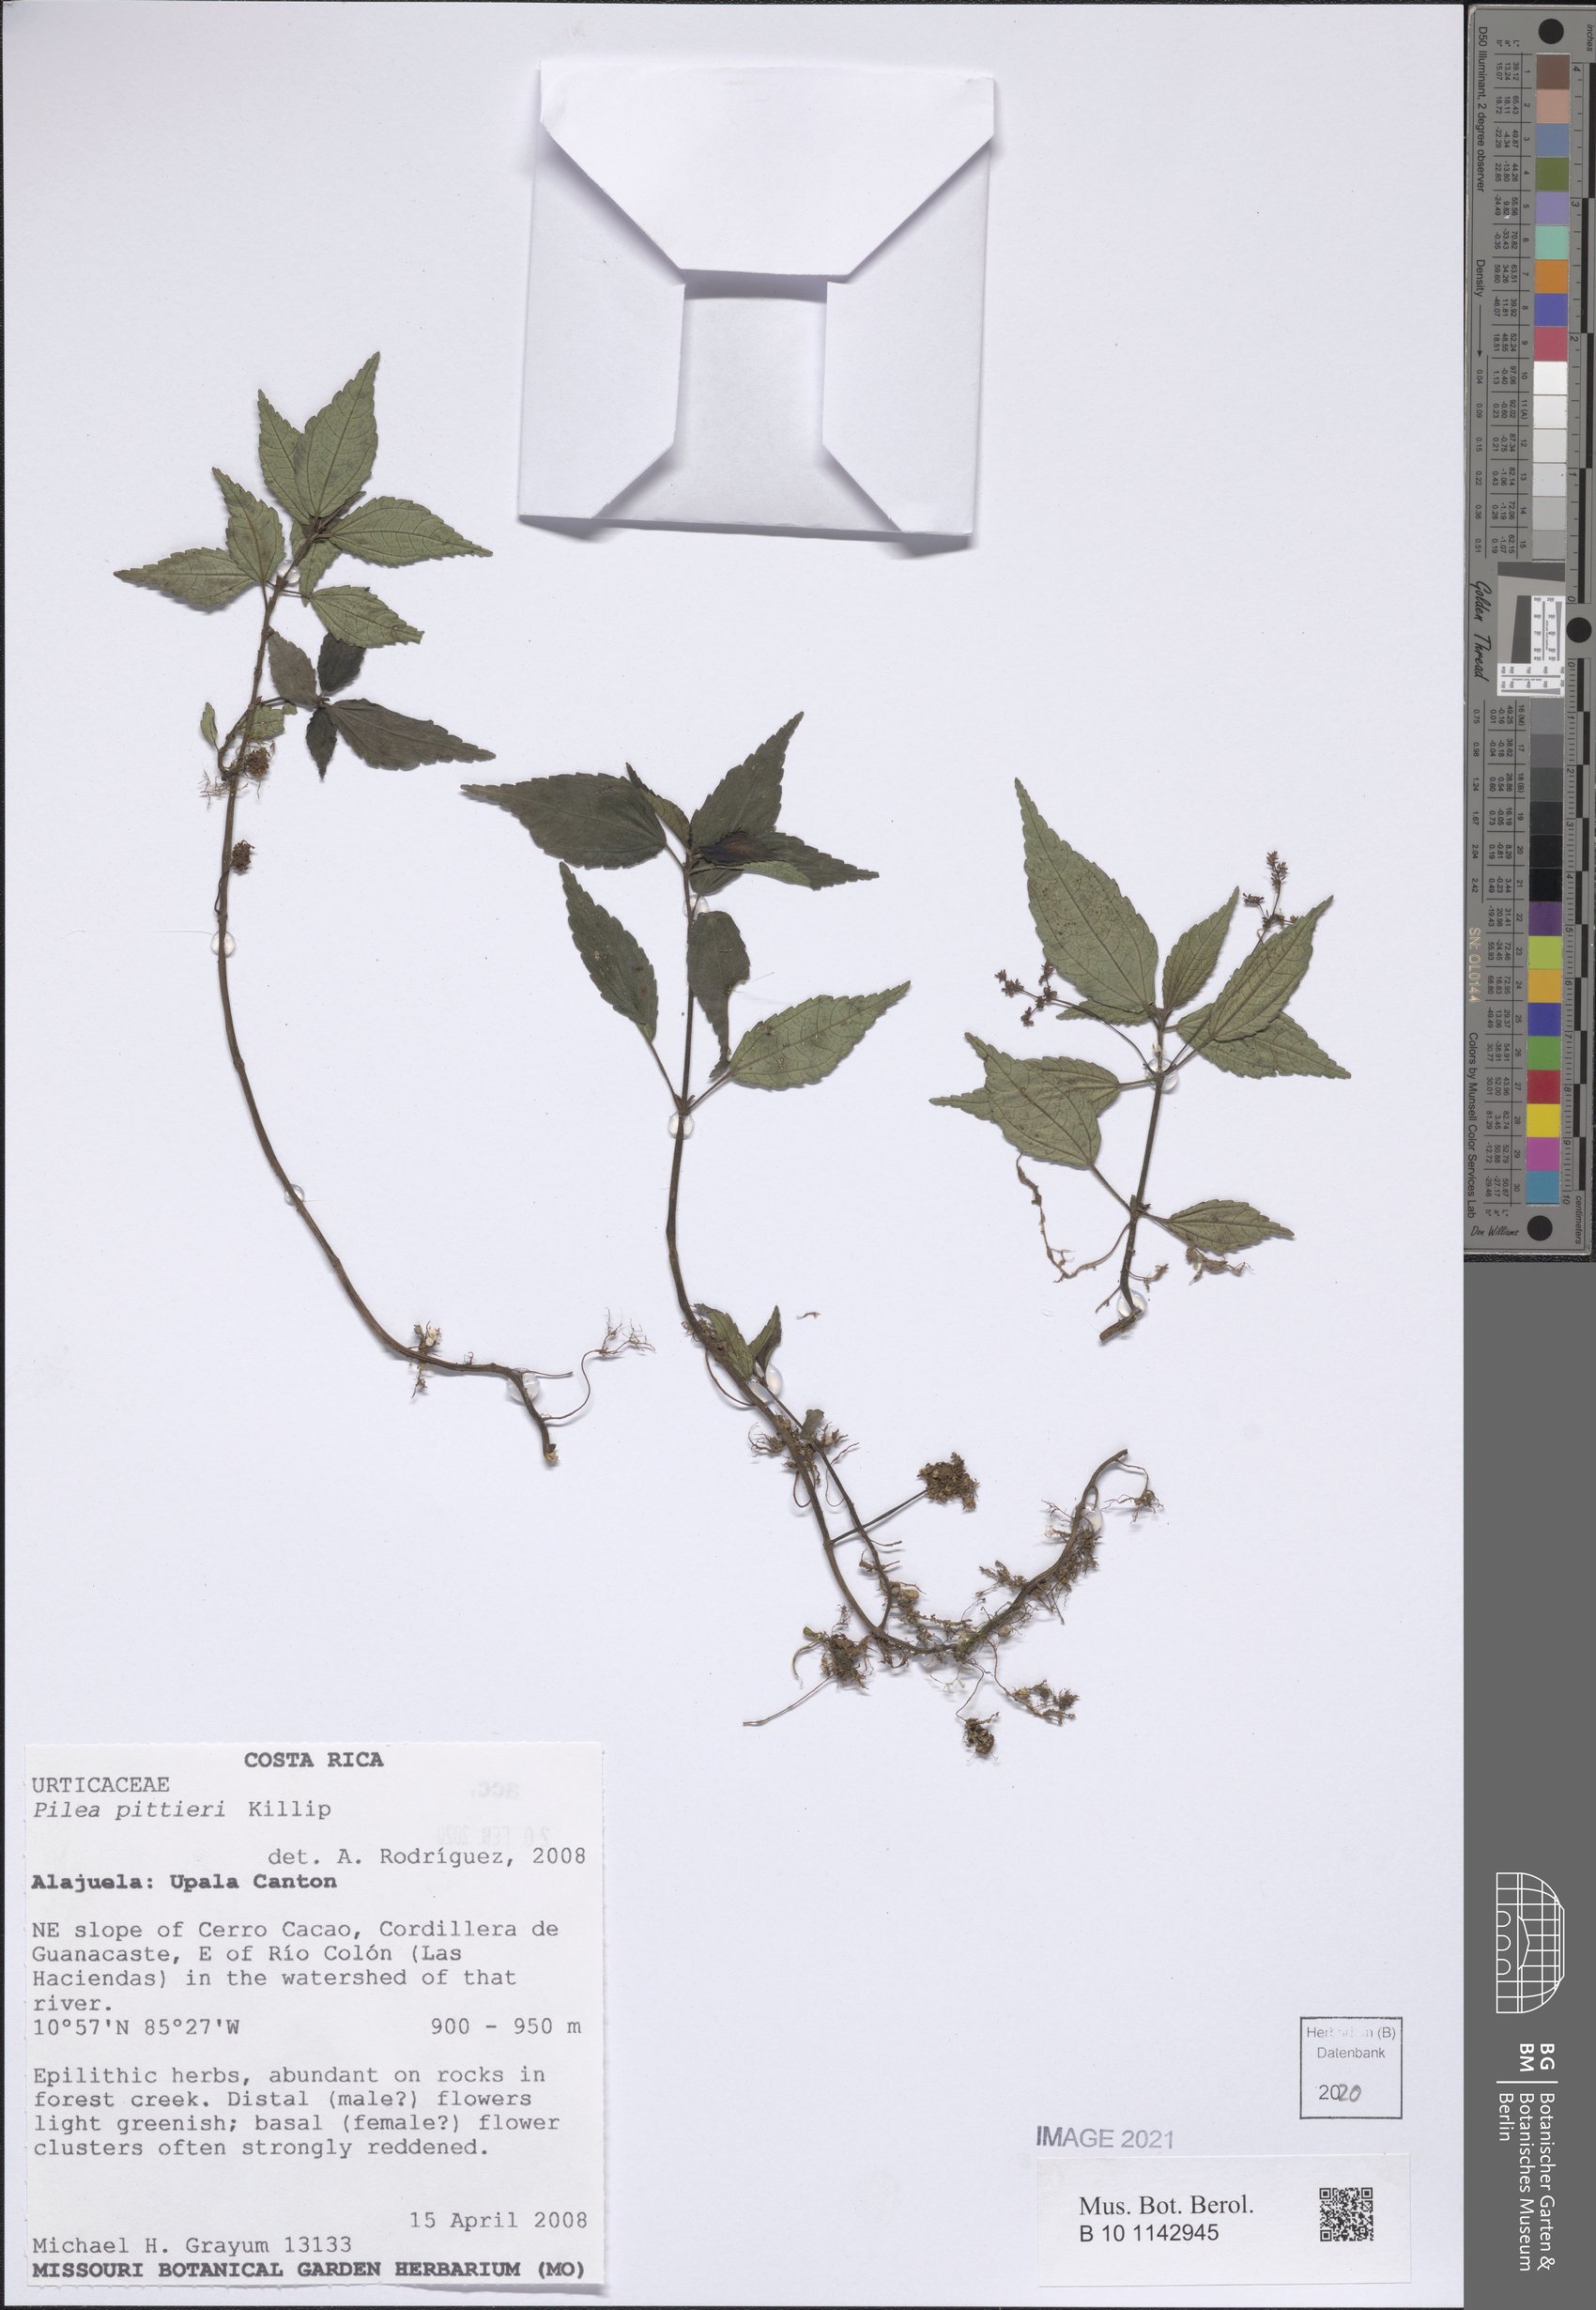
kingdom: Plantae
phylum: Tracheophyta
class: Magnoliopsida
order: Rosales
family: Urticaceae
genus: Pilea
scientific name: Pilea pittieri
